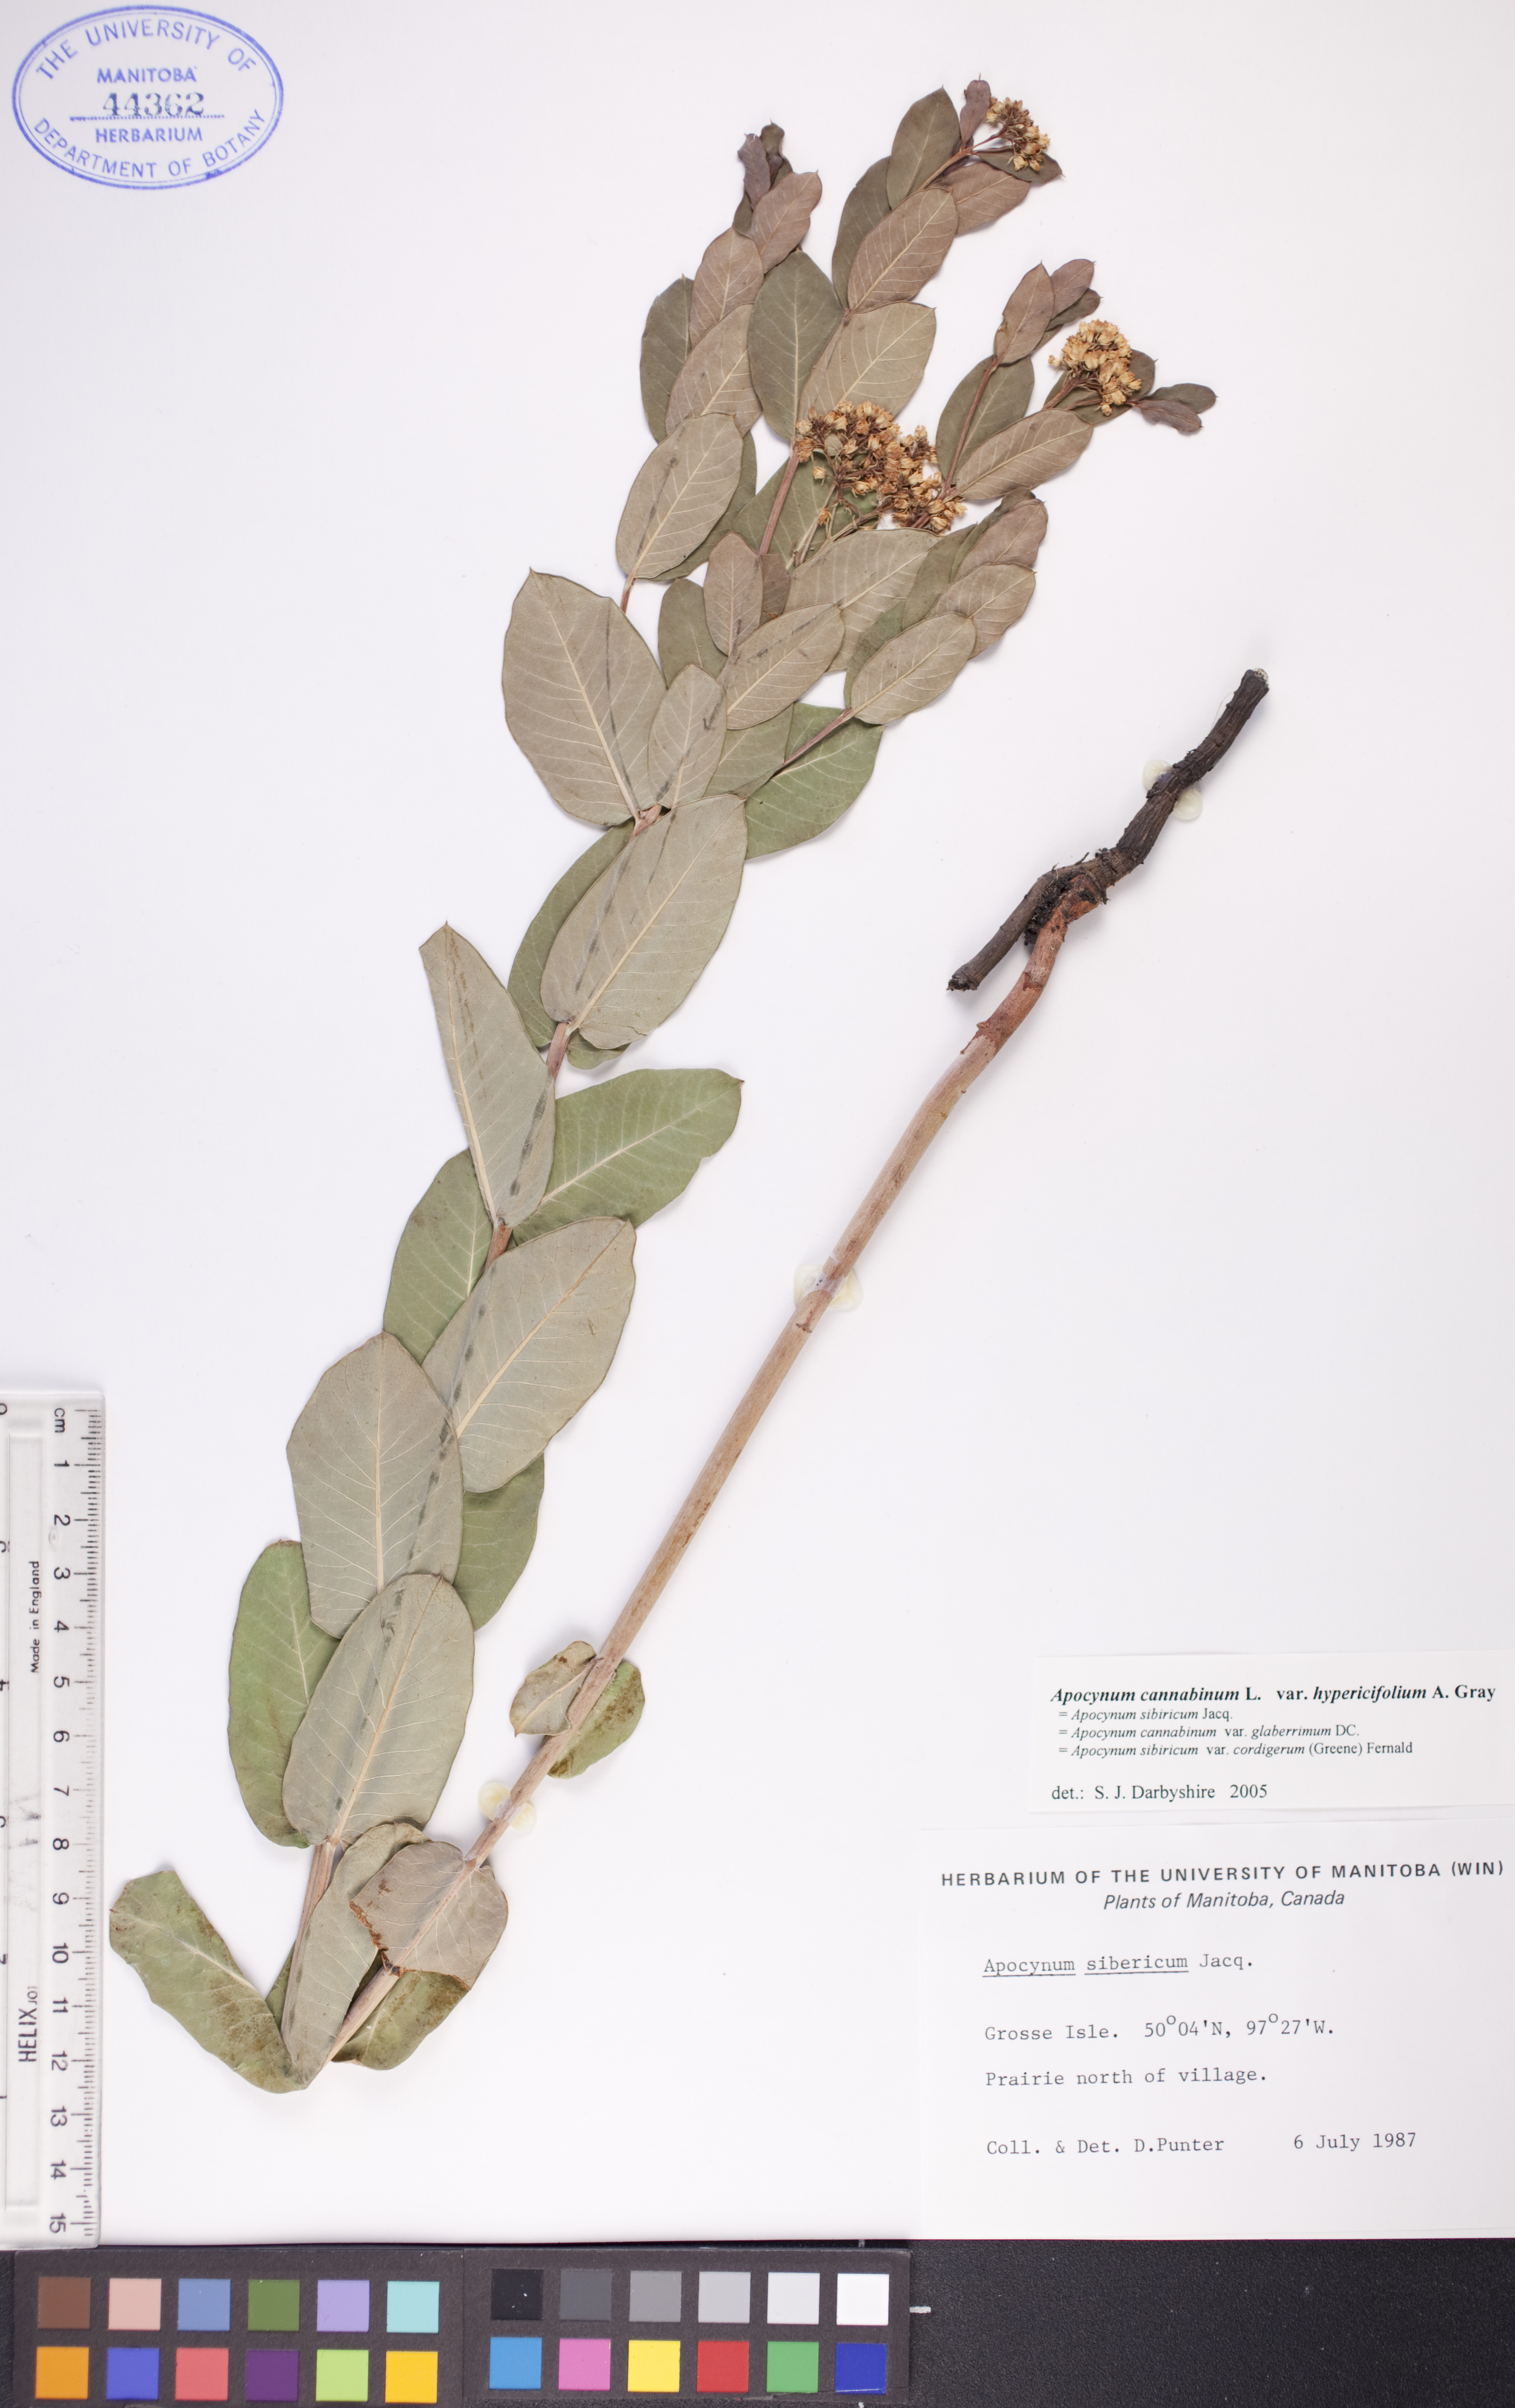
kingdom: Plantae
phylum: Tracheophyta
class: Magnoliopsida
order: Gentianales
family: Apocynaceae
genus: Apocynum
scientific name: Apocynum cannabinum
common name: Hemp dogbane
